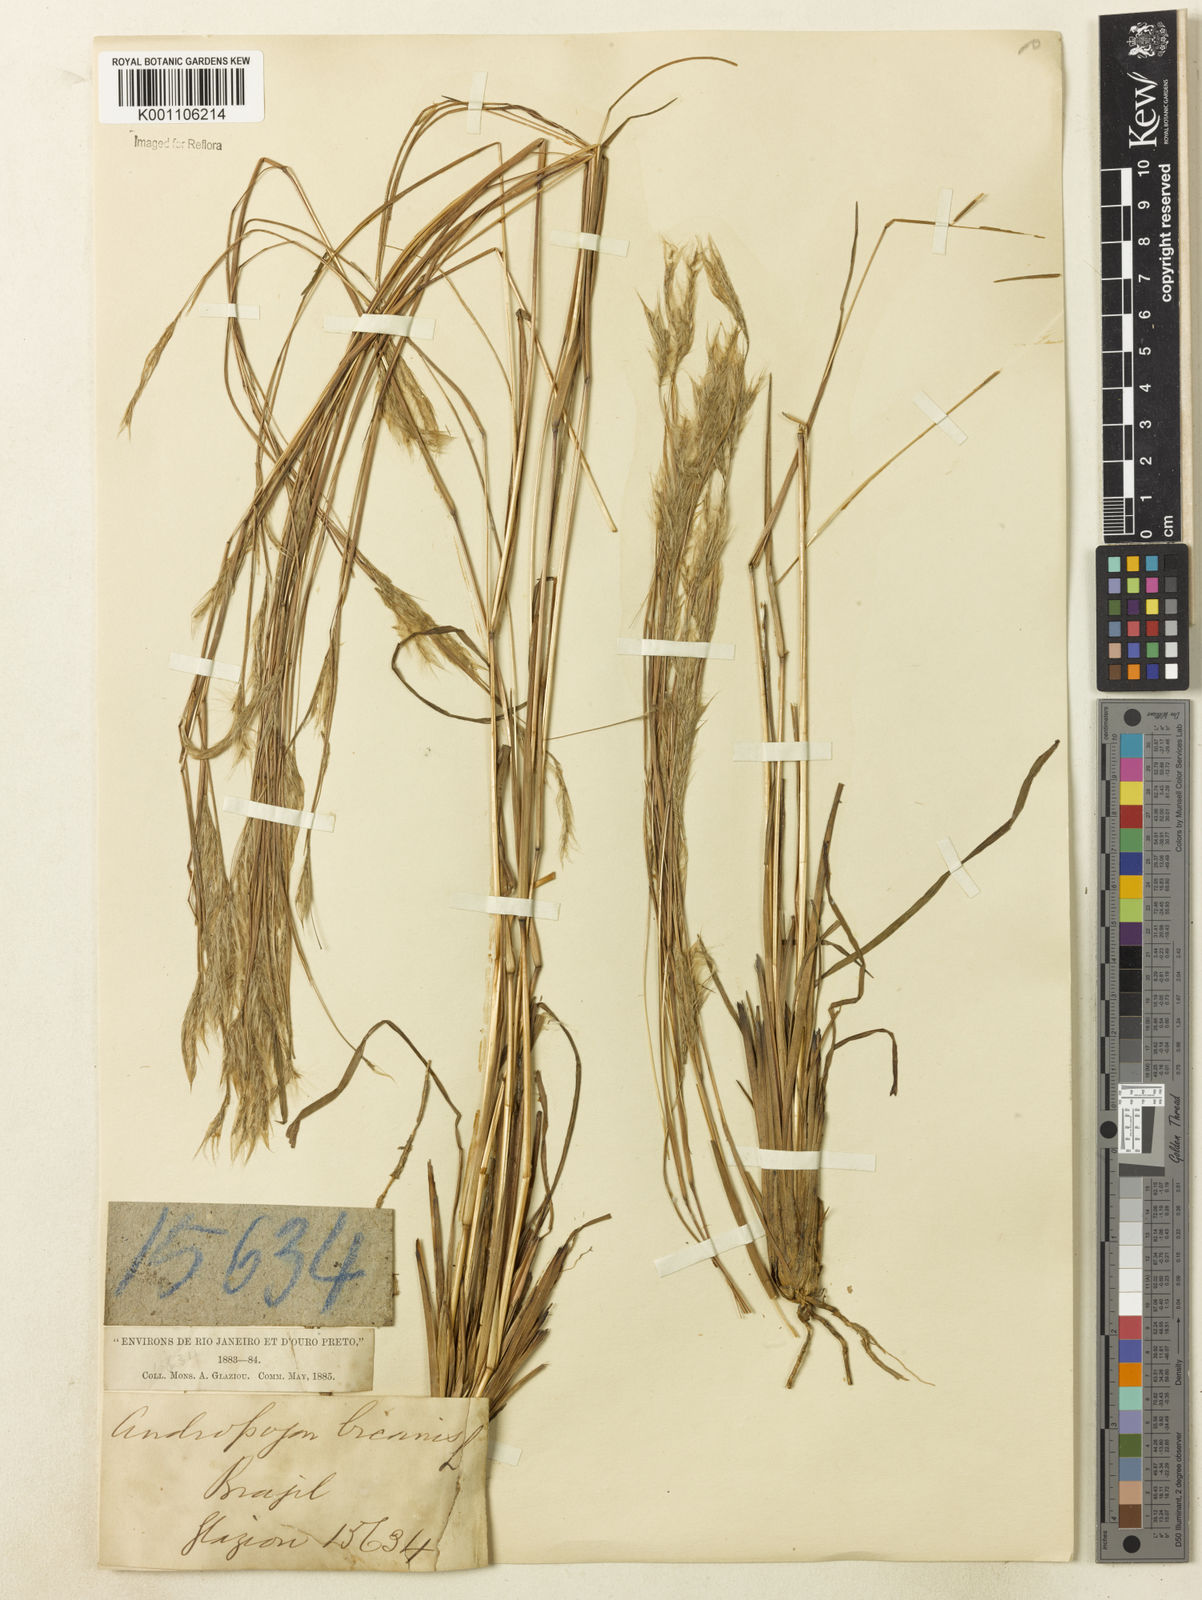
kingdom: Plantae
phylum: Tracheophyta
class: Liliopsida
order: Poales
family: Poaceae
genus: Andropogon
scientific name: Andropogon leucostachyus
